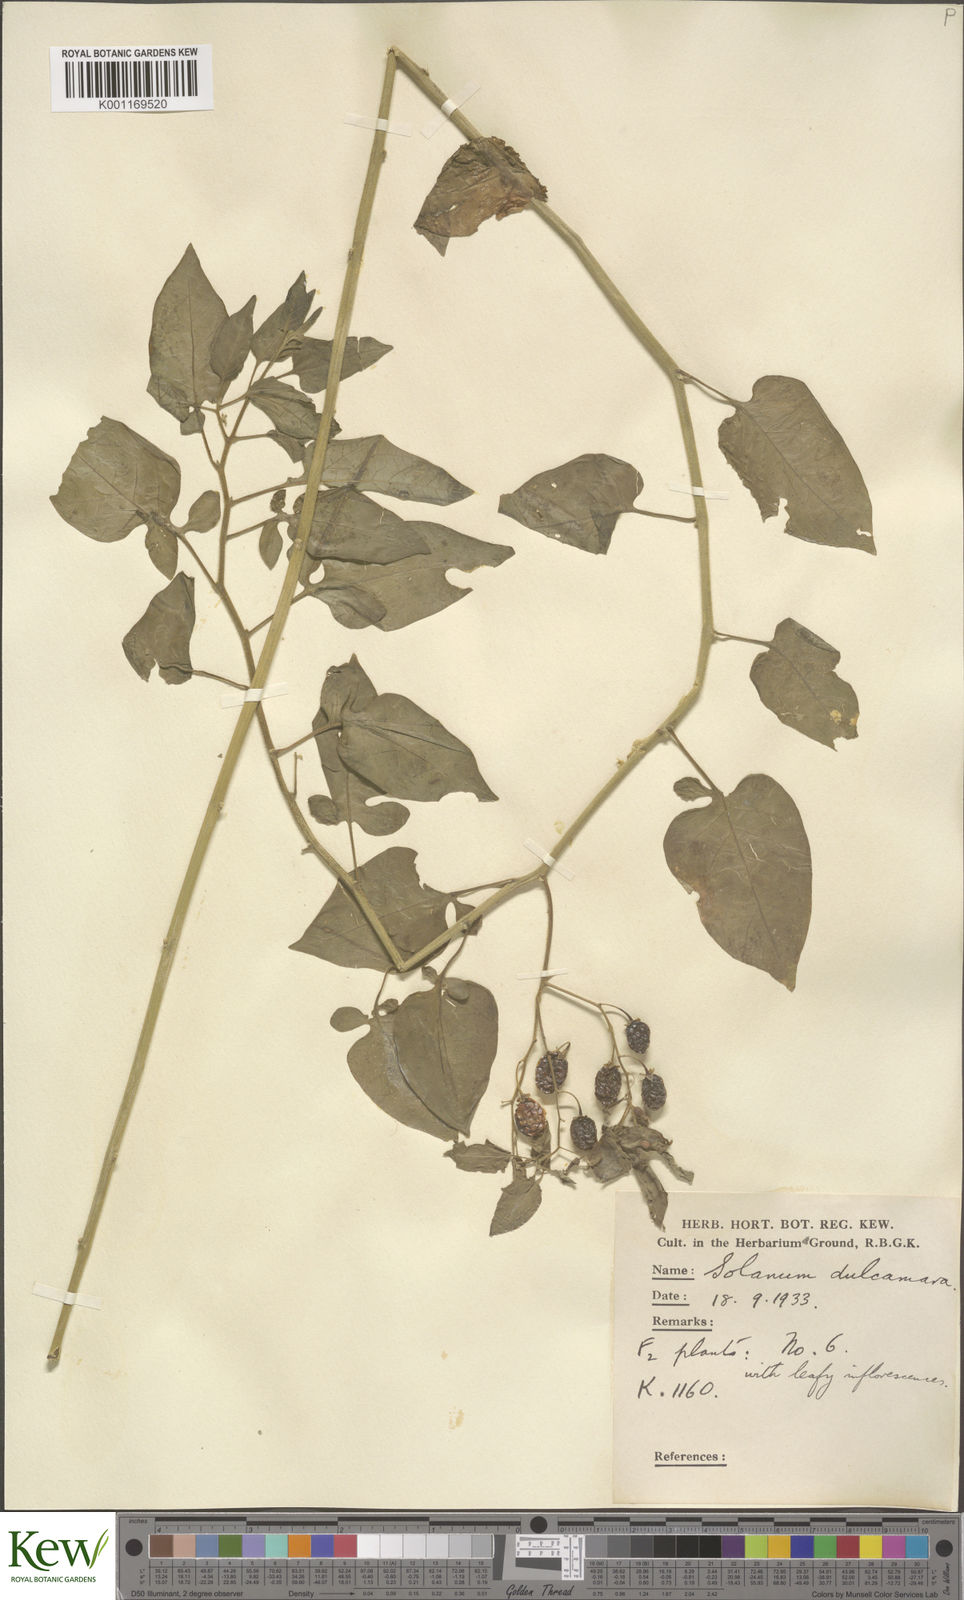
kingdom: Plantae
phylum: Tracheophyta
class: Magnoliopsida
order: Solanales
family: Solanaceae
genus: Solanum
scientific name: Solanum dulcamara
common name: Climbing nightshade
